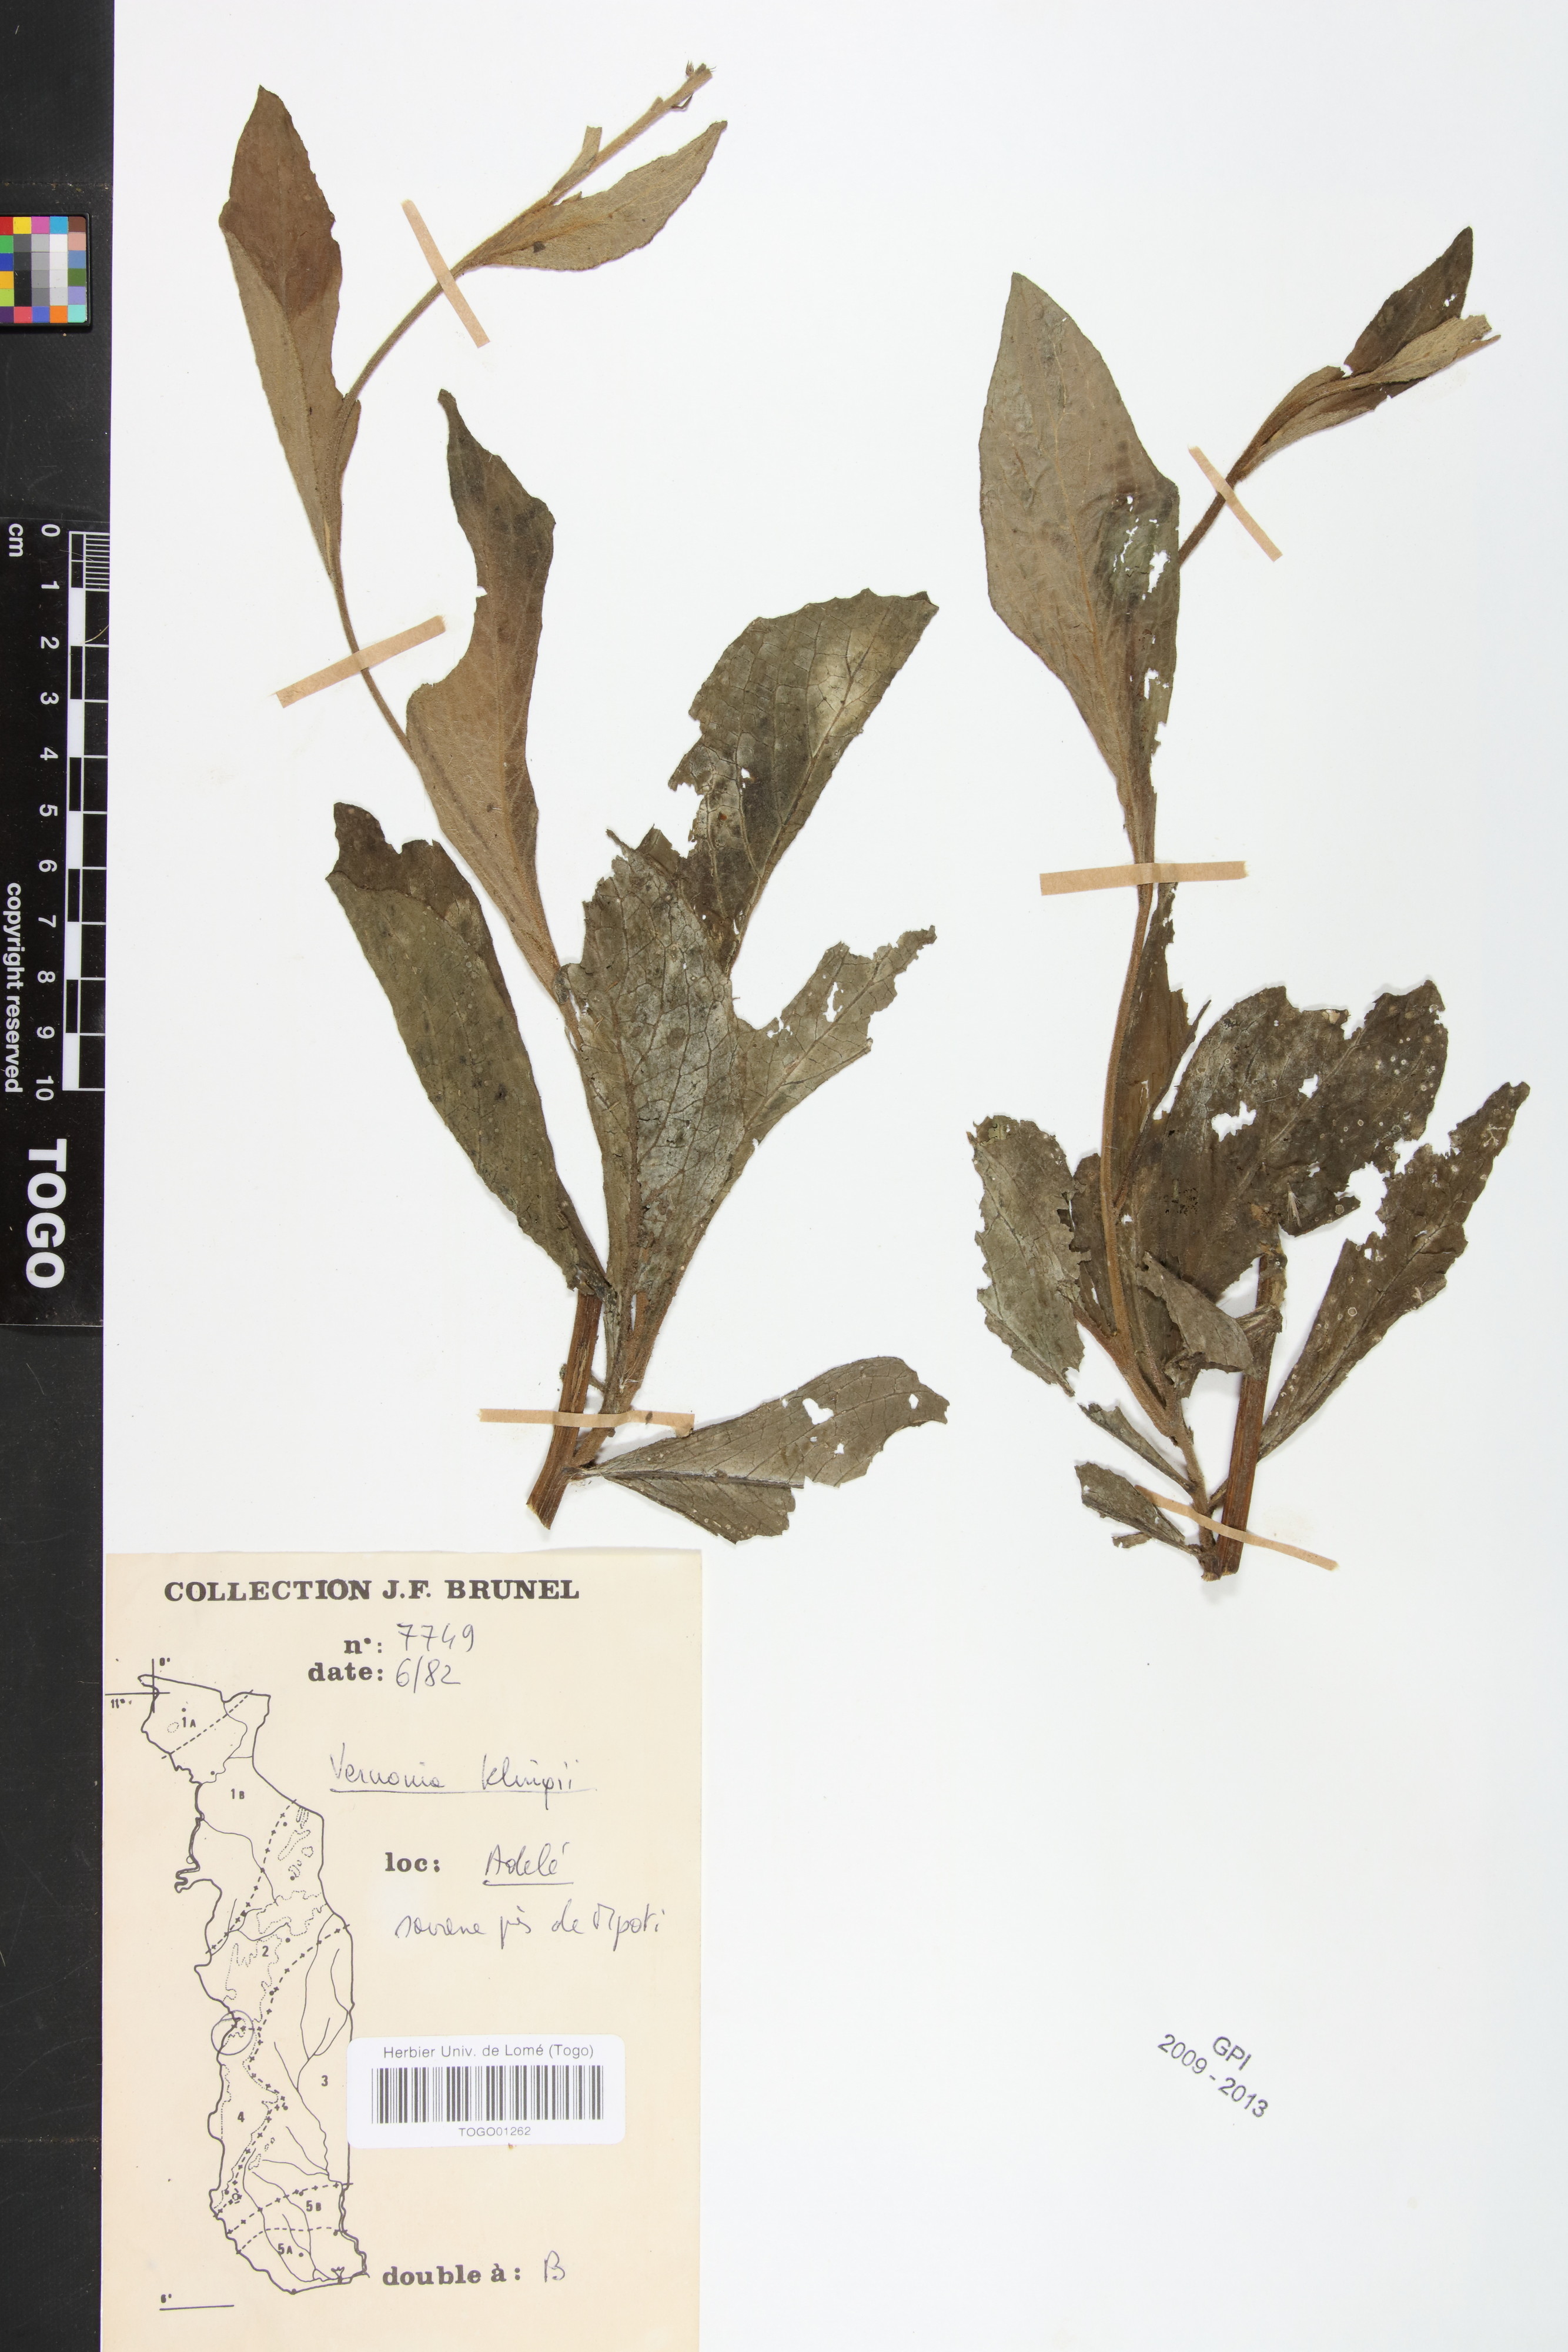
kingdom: Plantae
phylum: Tracheophyta
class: Magnoliopsida
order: Asterales
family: Asteraceae
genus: Vernoniastrum
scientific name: Vernoniastrum klingii
